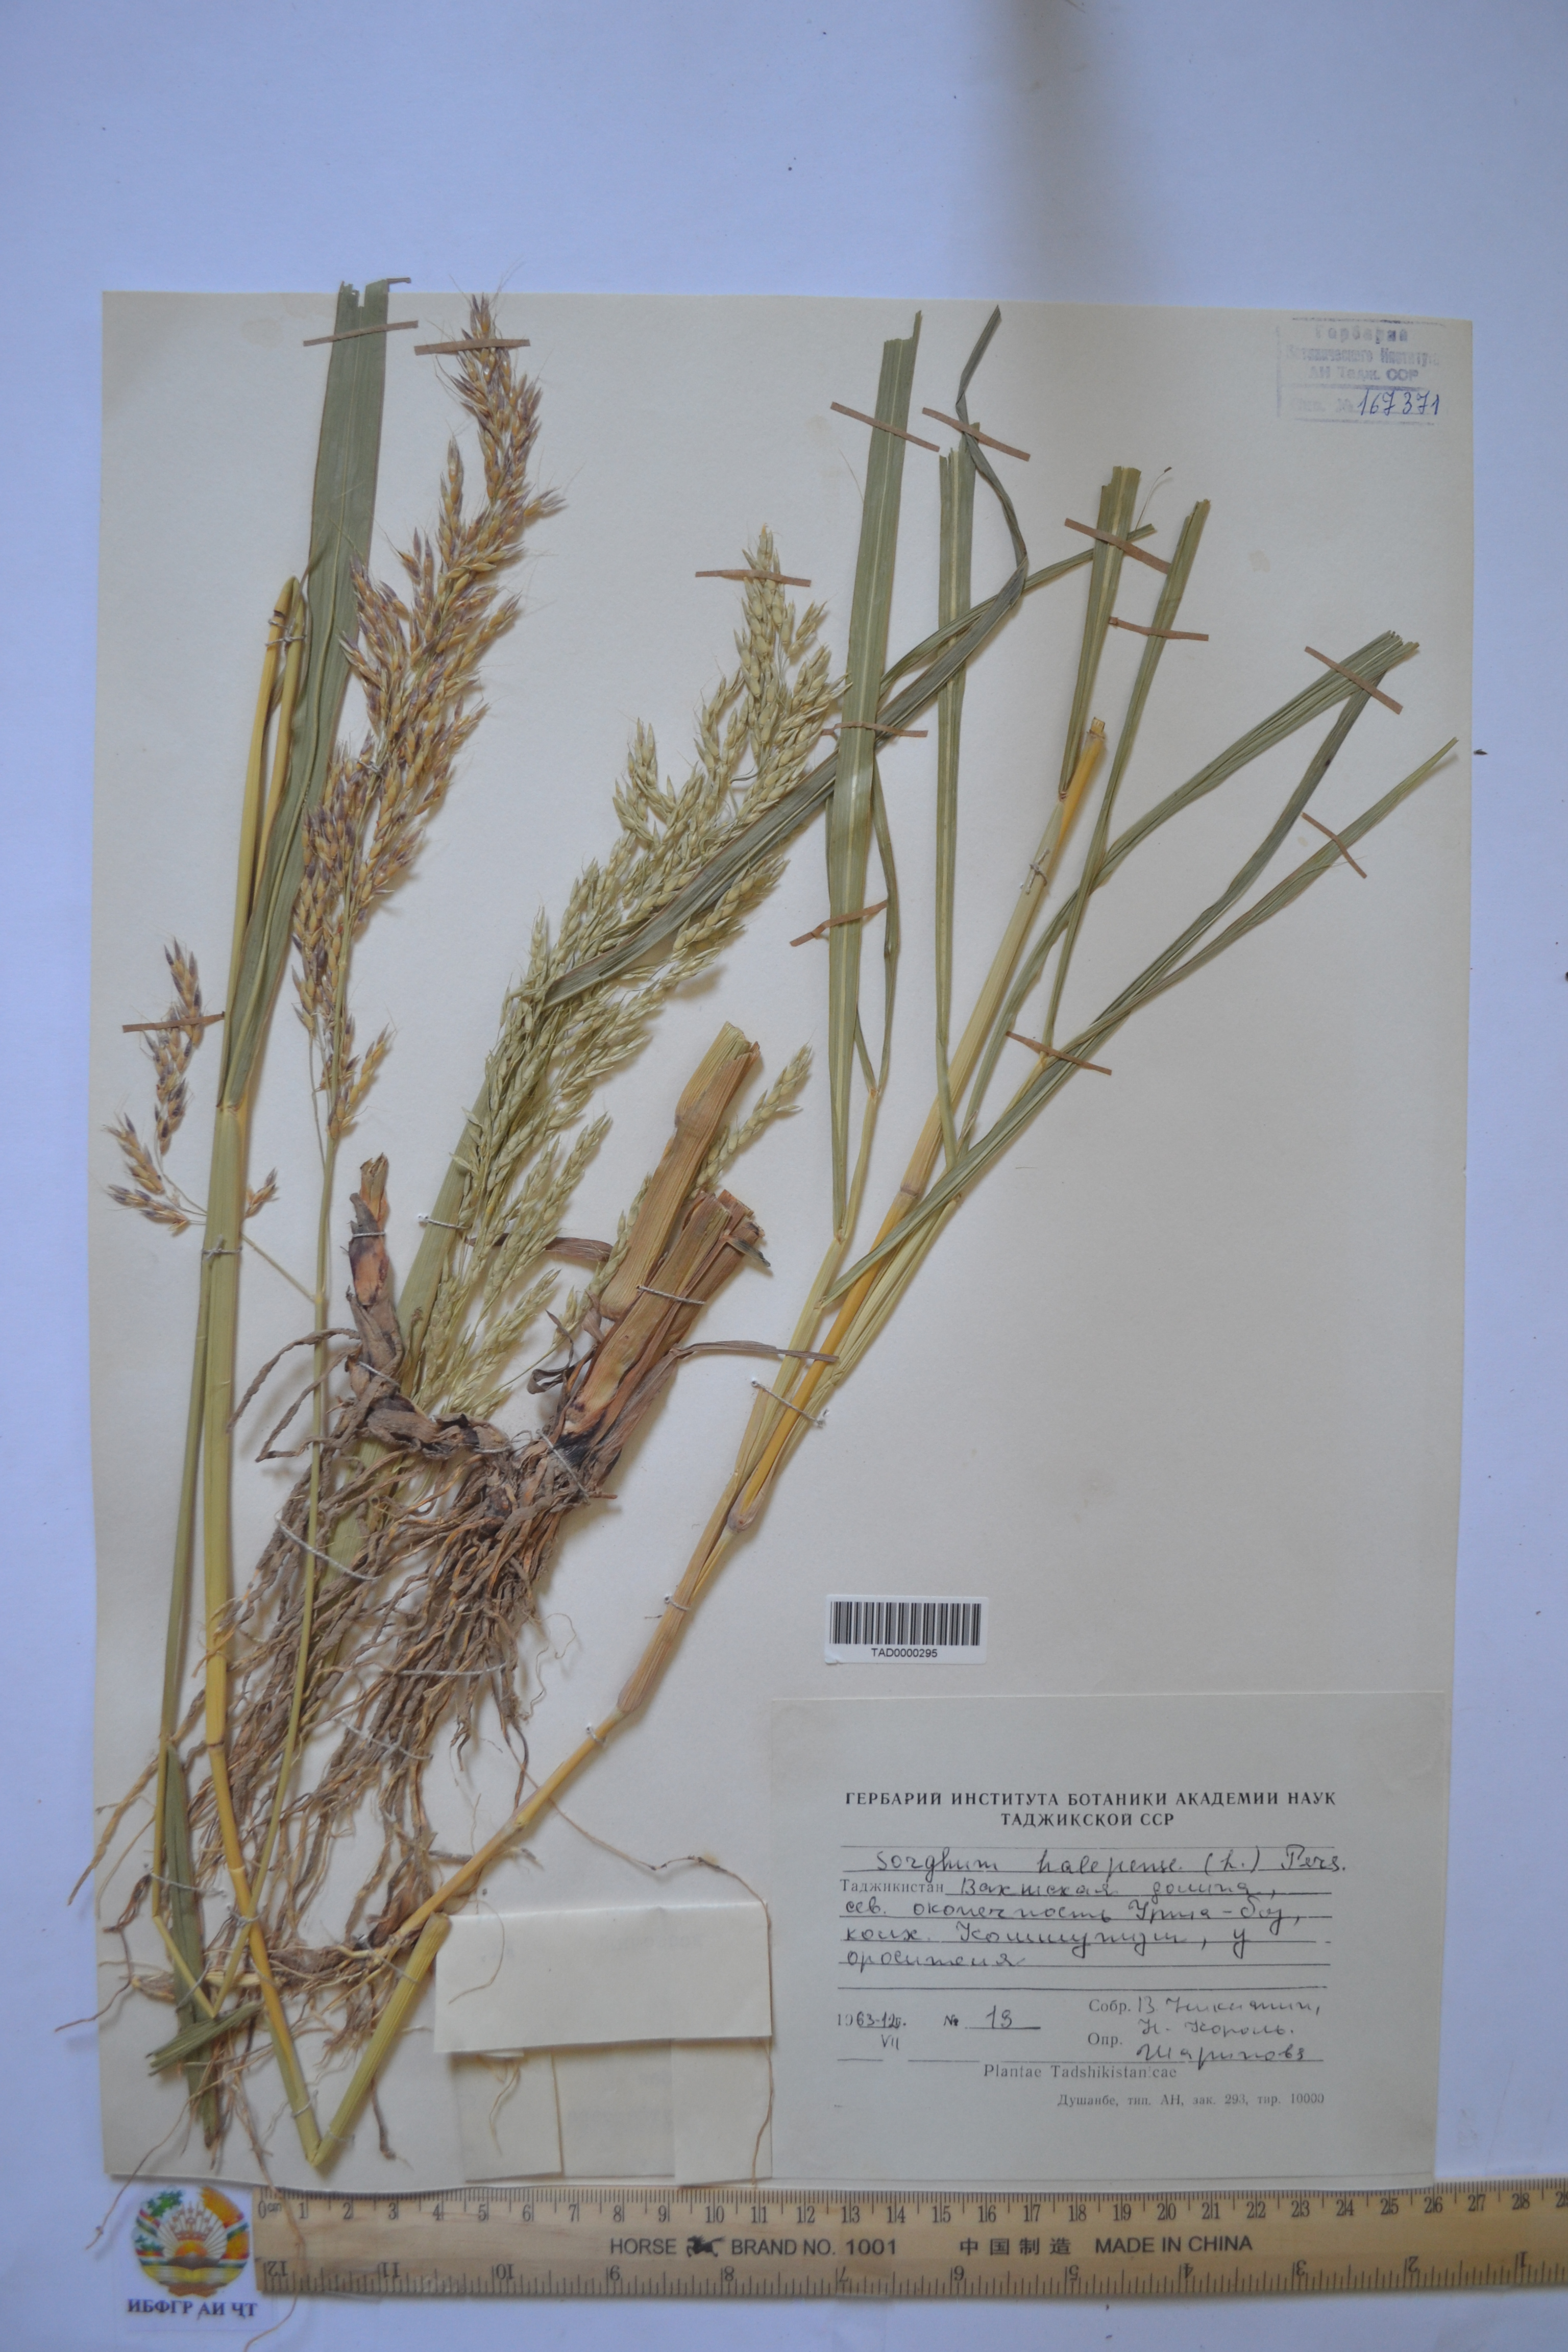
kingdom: Plantae
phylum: Tracheophyta
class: Liliopsida
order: Poales
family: Poaceae
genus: Sorghum
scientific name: Sorghum halepense
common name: Johnson-grass
